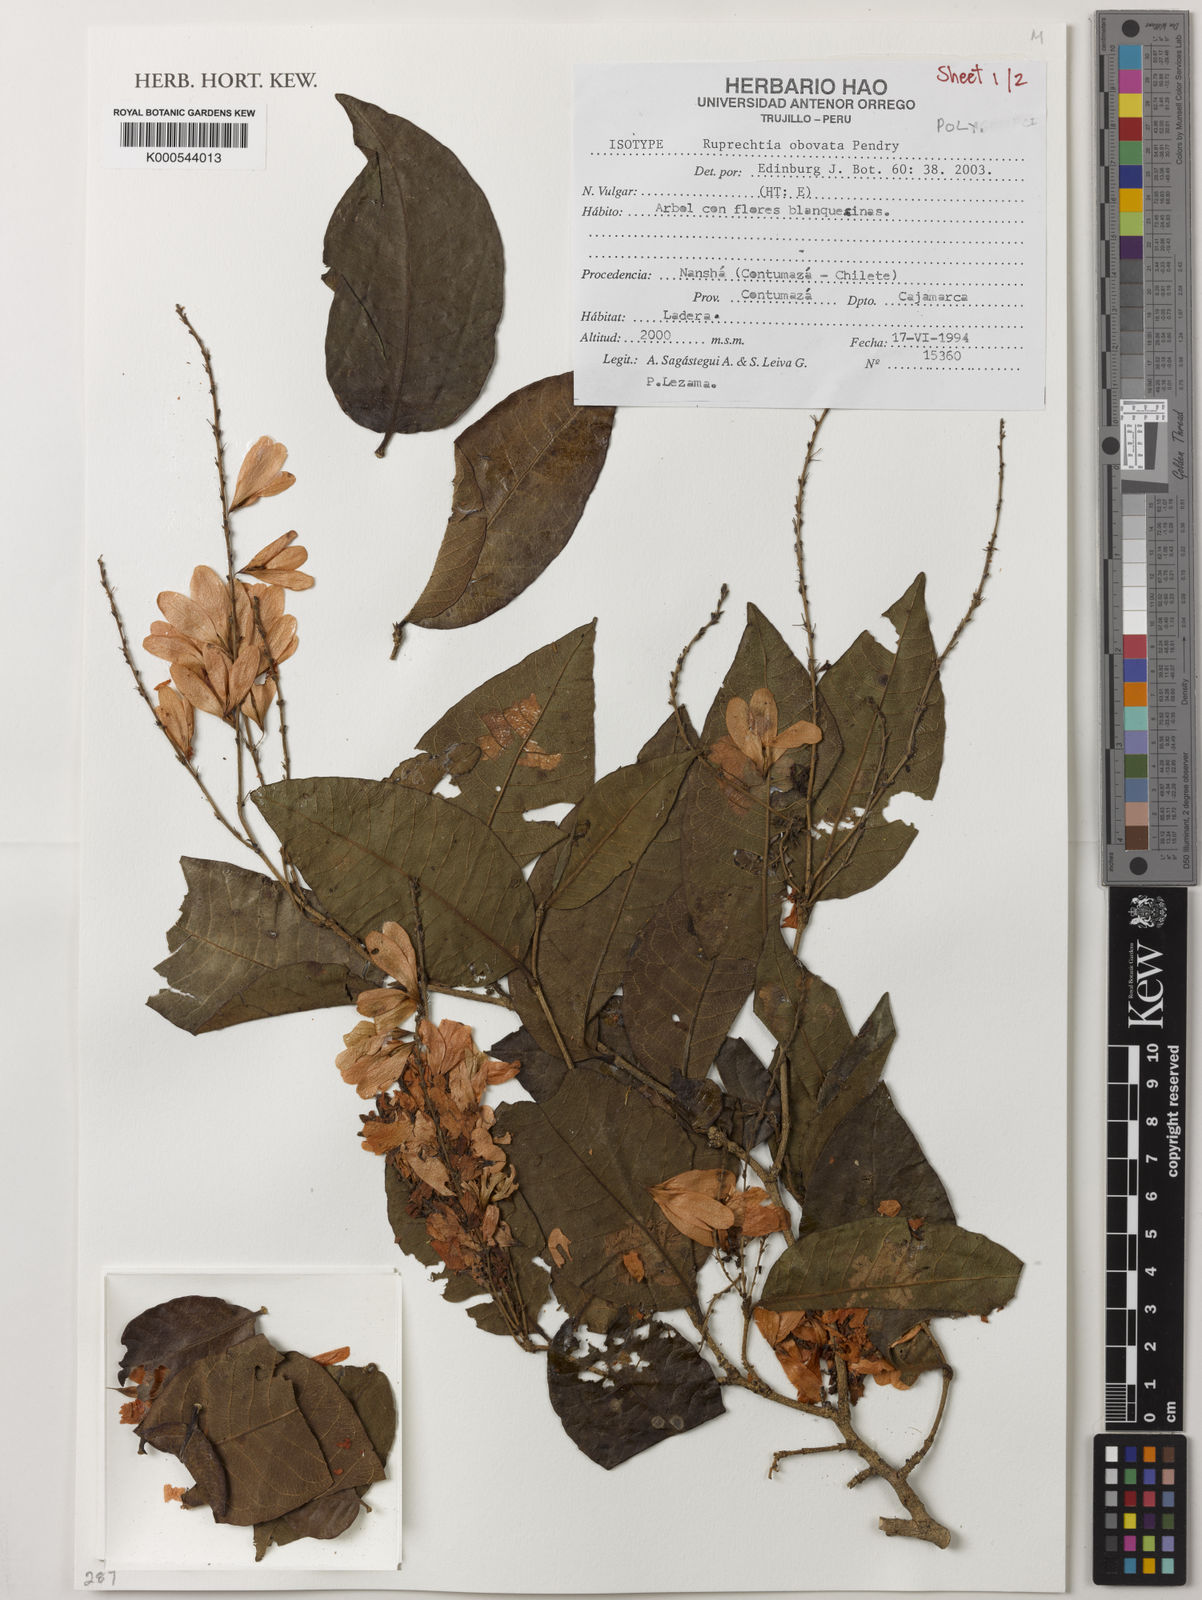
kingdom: Plantae
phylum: Tracheophyta
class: Magnoliopsida
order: Caryophyllales
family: Polygonaceae
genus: Ruprechtia
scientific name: Ruprechtia obovata
